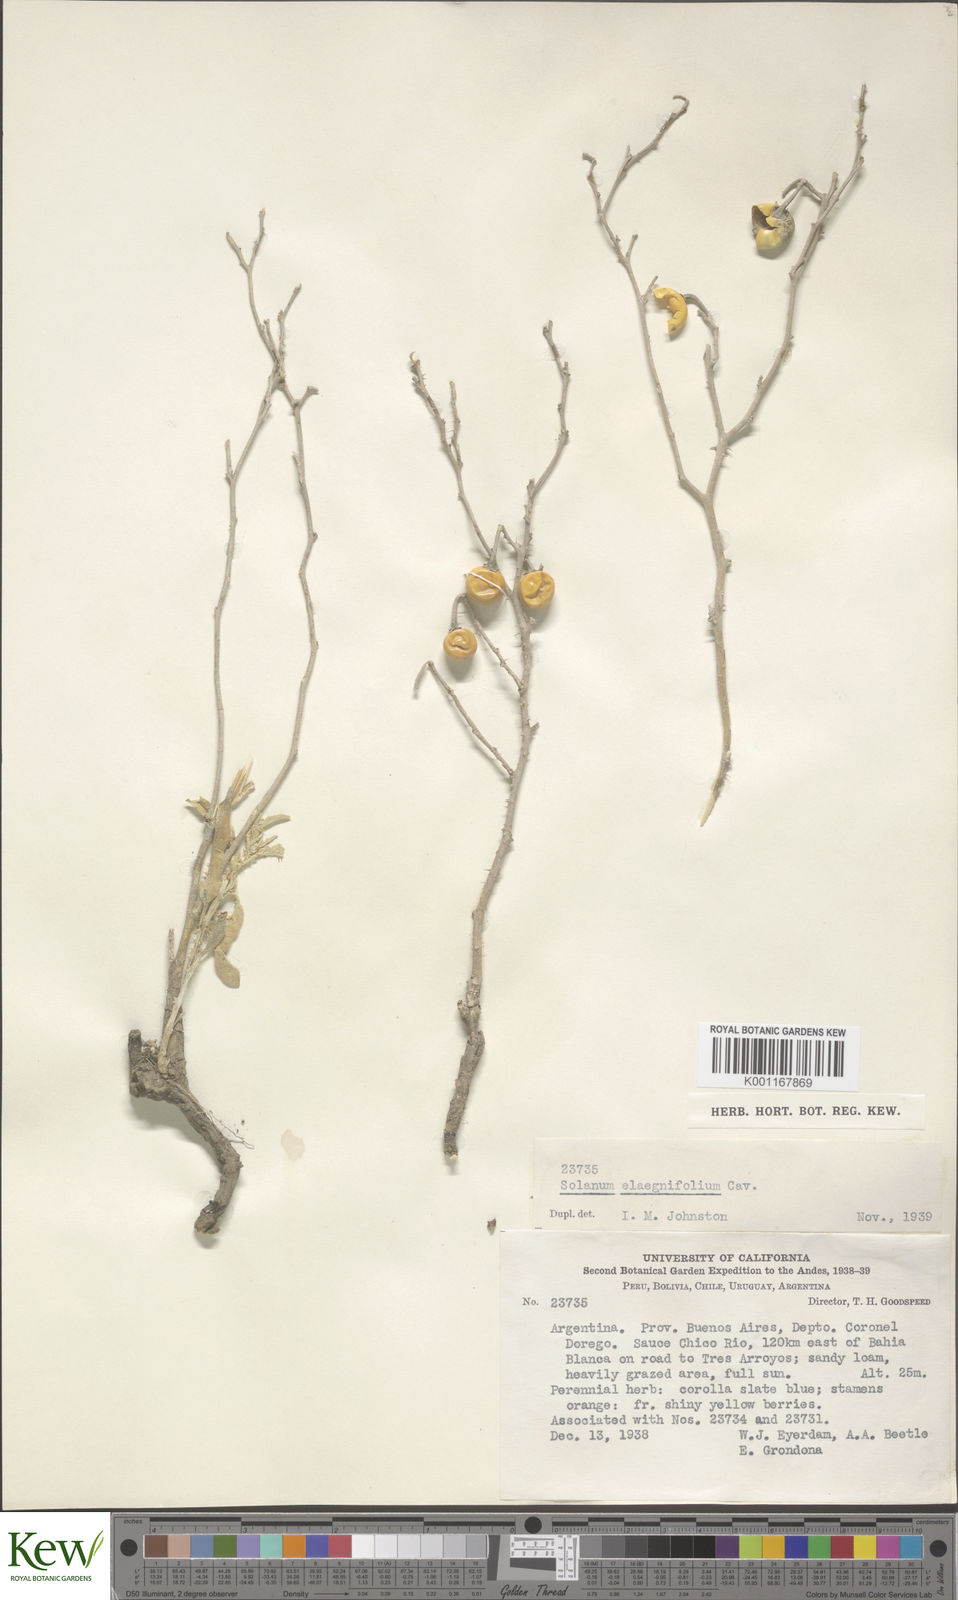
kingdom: Plantae
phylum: Tracheophyta
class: Magnoliopsida
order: Solanales
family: Solanaceae
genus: Solanum
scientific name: Solanum elaeagnifolium
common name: Silverleaf nightshade
